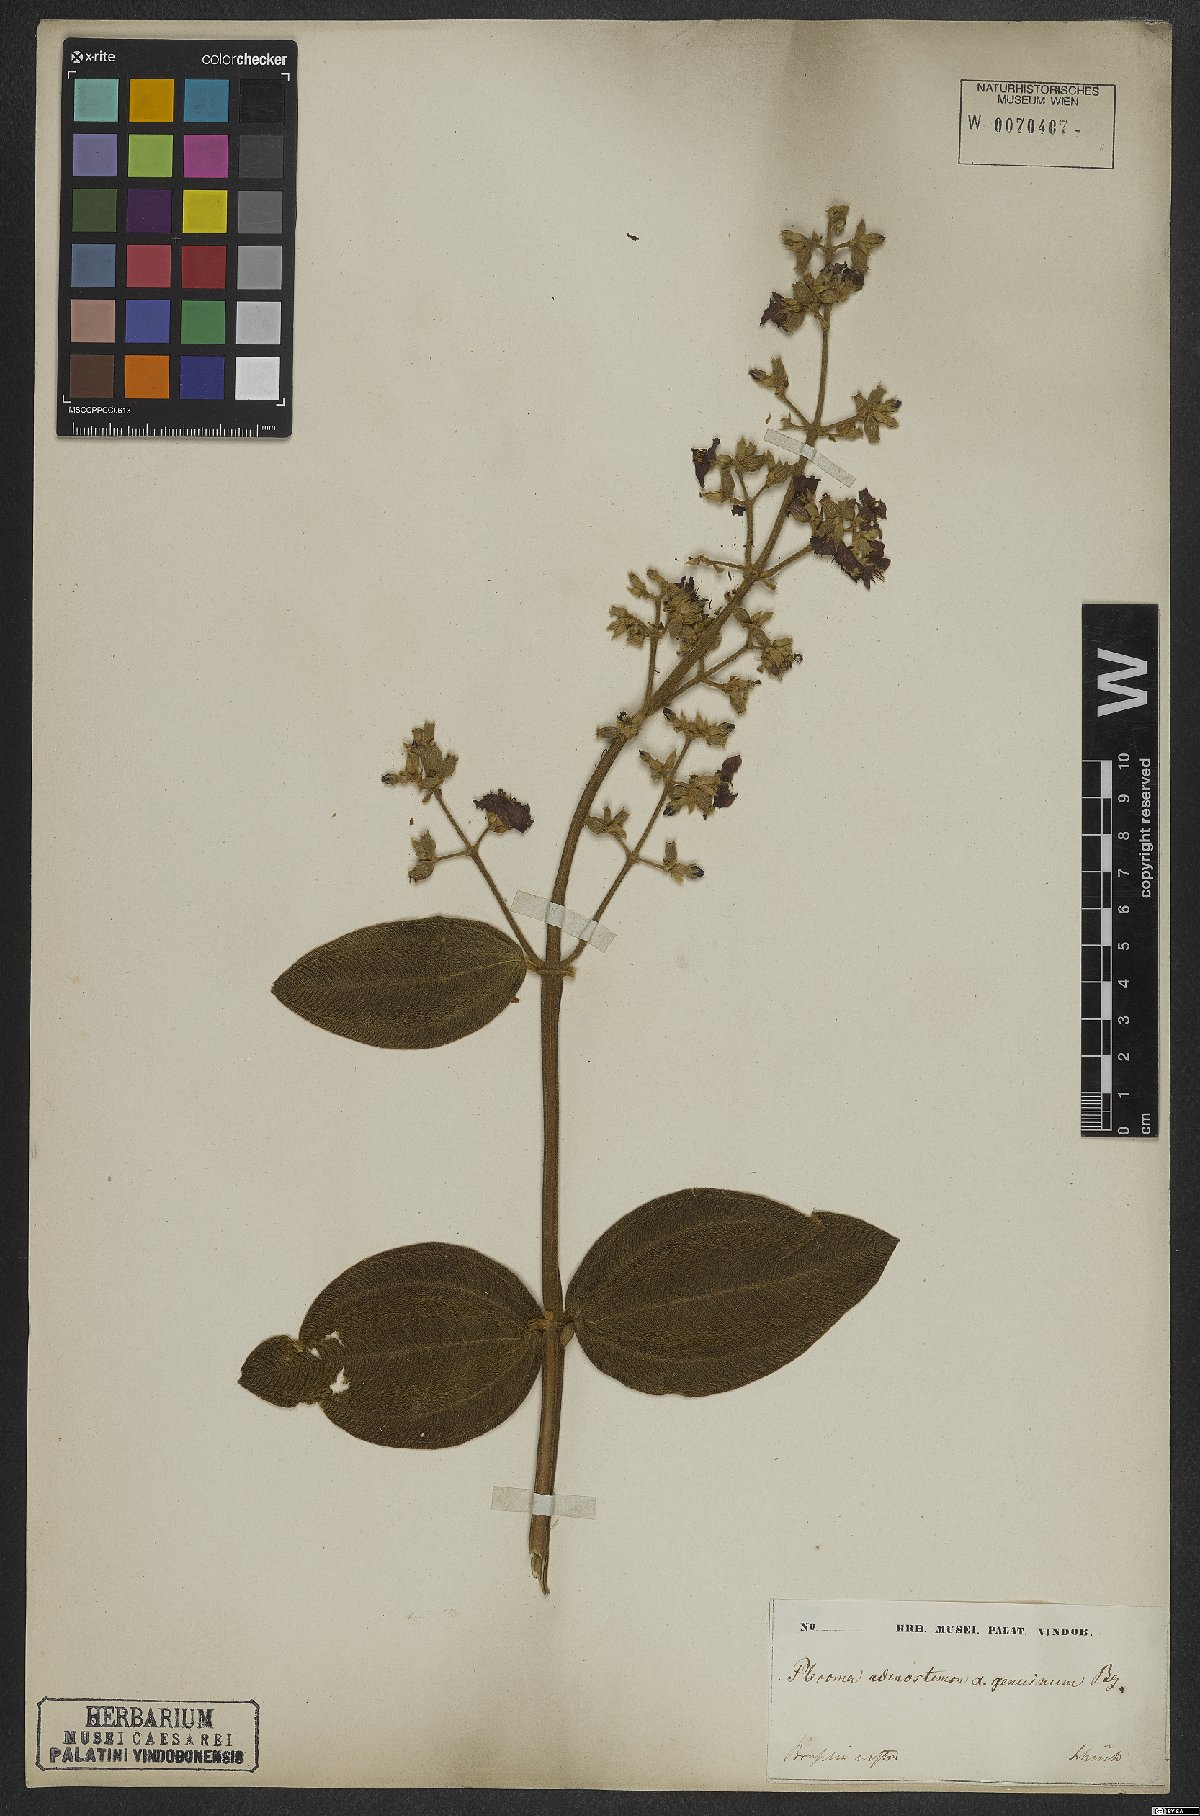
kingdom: Plantae
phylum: Tracheophyta
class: Magnoliopsida
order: Myrtales
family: Melastomataceae
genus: Pleroma
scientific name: Pleroma heteromallum
